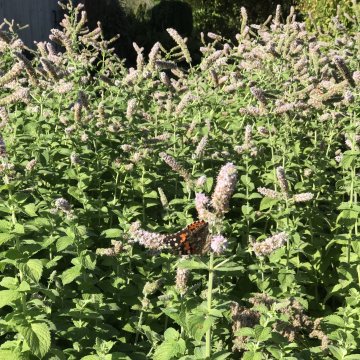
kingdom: Animalia
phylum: Arthropoda
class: Insecta
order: Lepidoptera
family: Nymphalidae
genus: Vanessa
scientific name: Vanessa cardui
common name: Painted Lady
